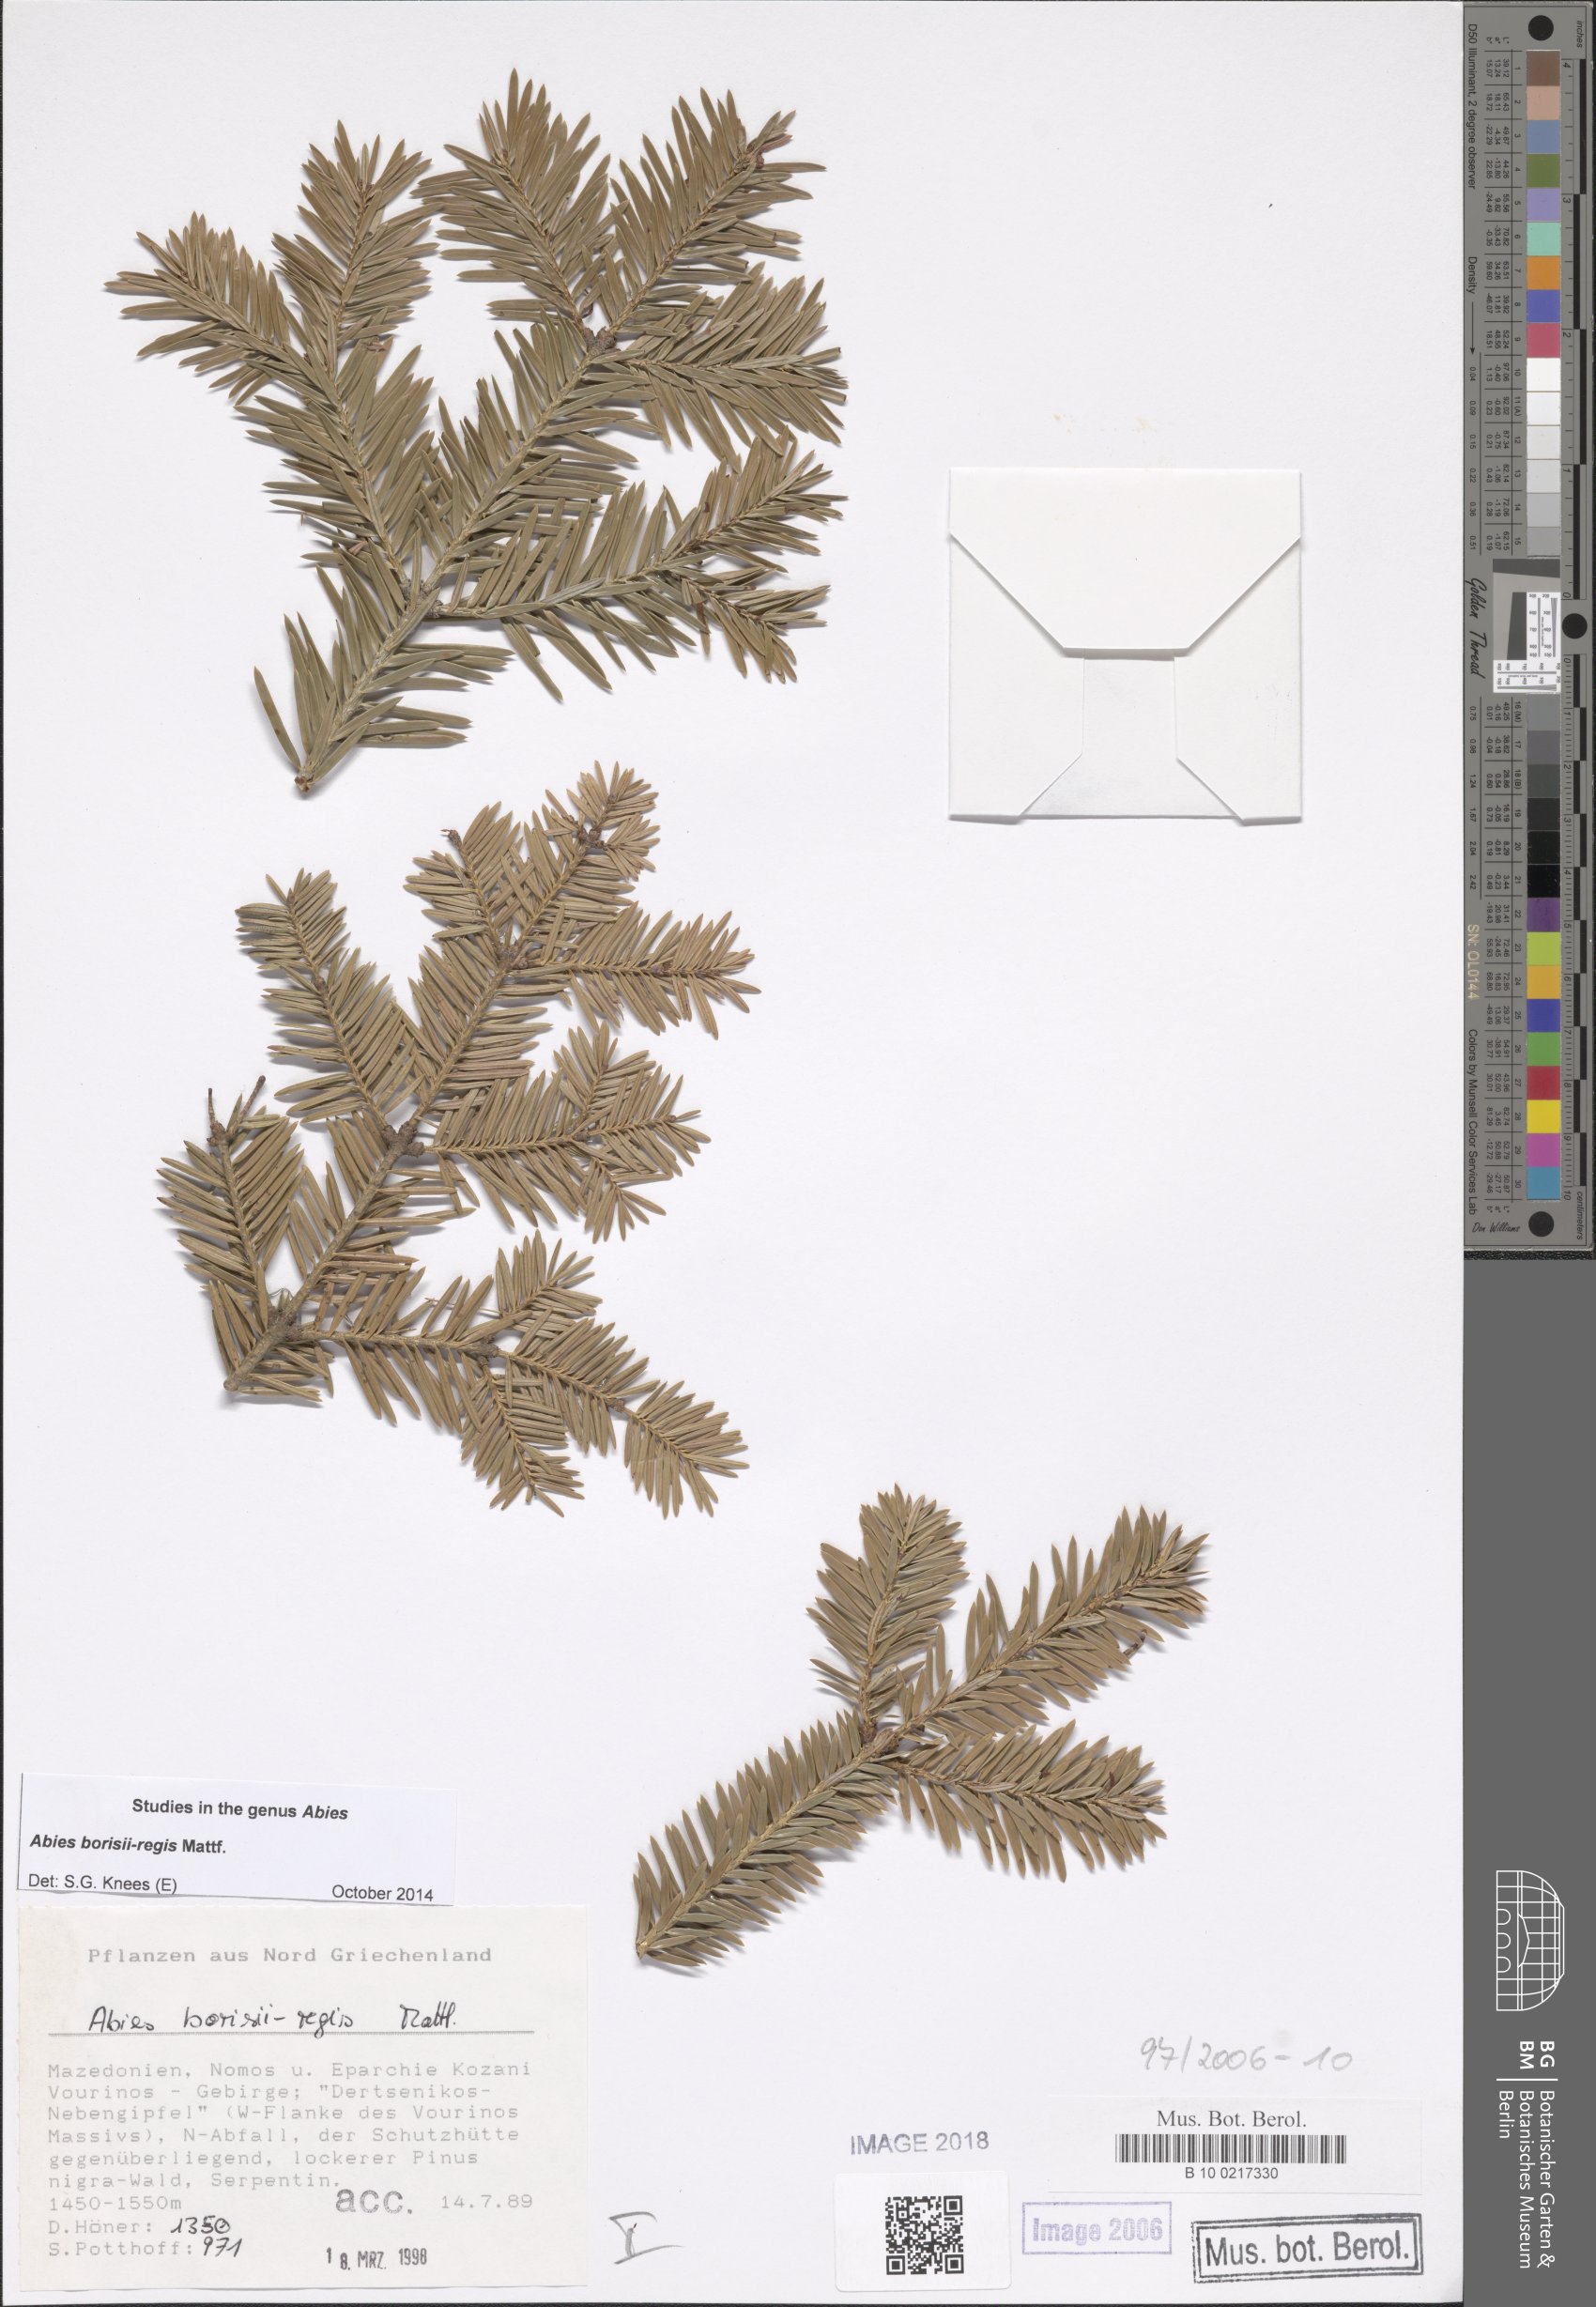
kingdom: Plantae
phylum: Tracheophyta
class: Pinopsida
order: Pinales
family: Pinaceae
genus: Abies
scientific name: Abies borisii-regis
